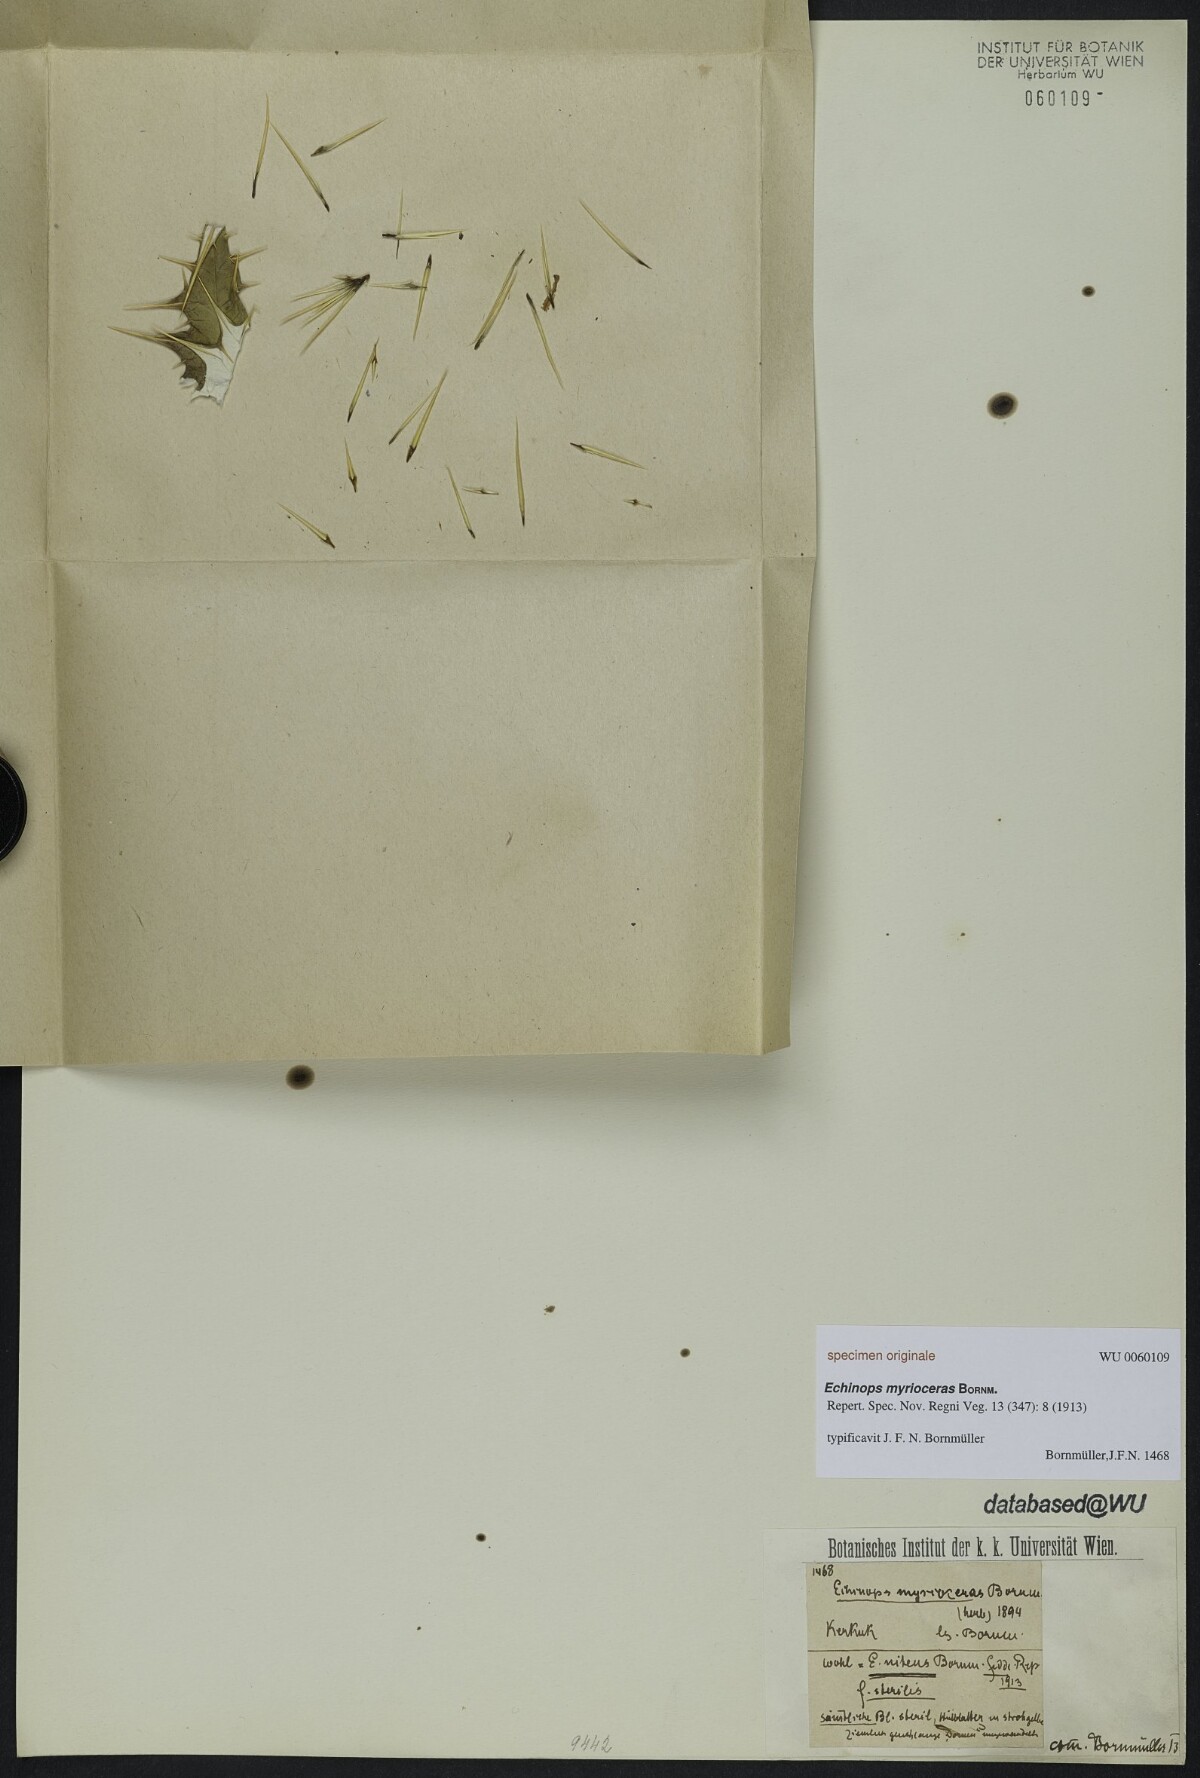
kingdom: Plantae
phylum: Tracheophyta
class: Magnoliopsida
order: Asterales
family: Asteraceae
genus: Echinops
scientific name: Echinops myrioceras
